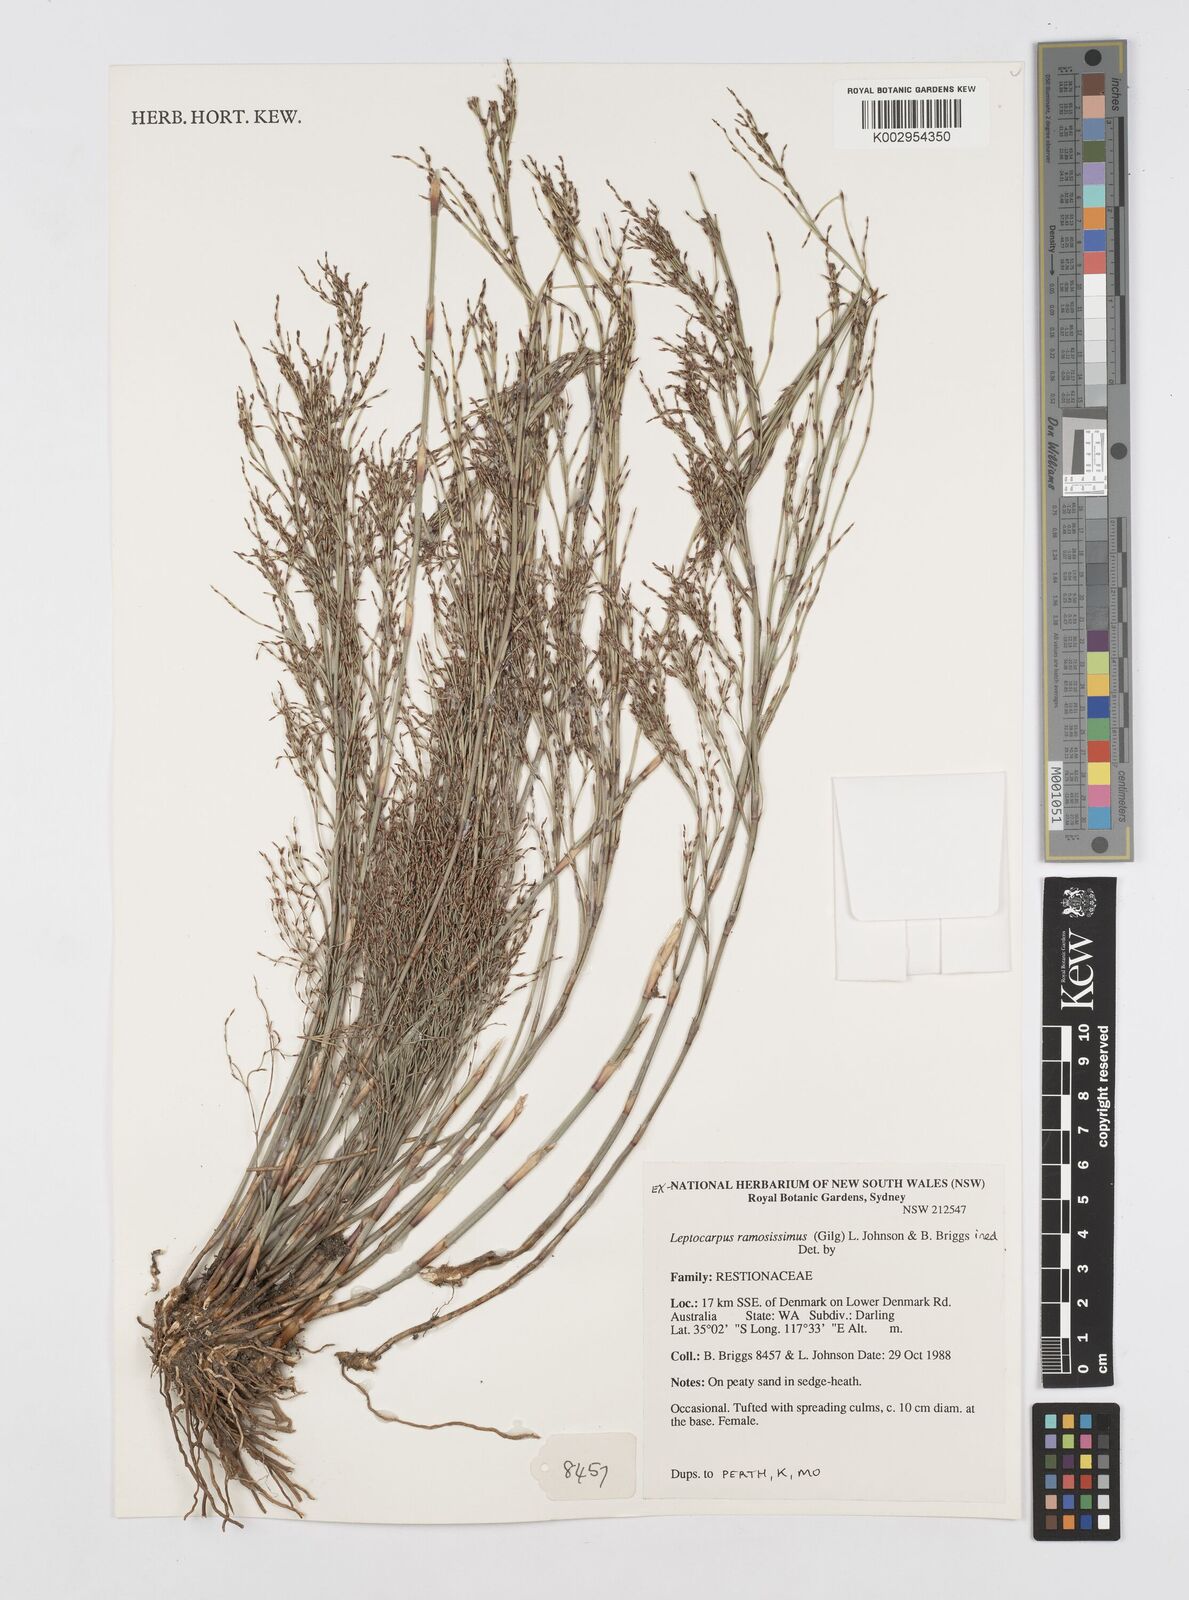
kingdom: Plantae
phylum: Tracheophyta
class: Liliopsida
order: Poales
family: Restionaceae
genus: Leptocarpus
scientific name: Leptocarpus
